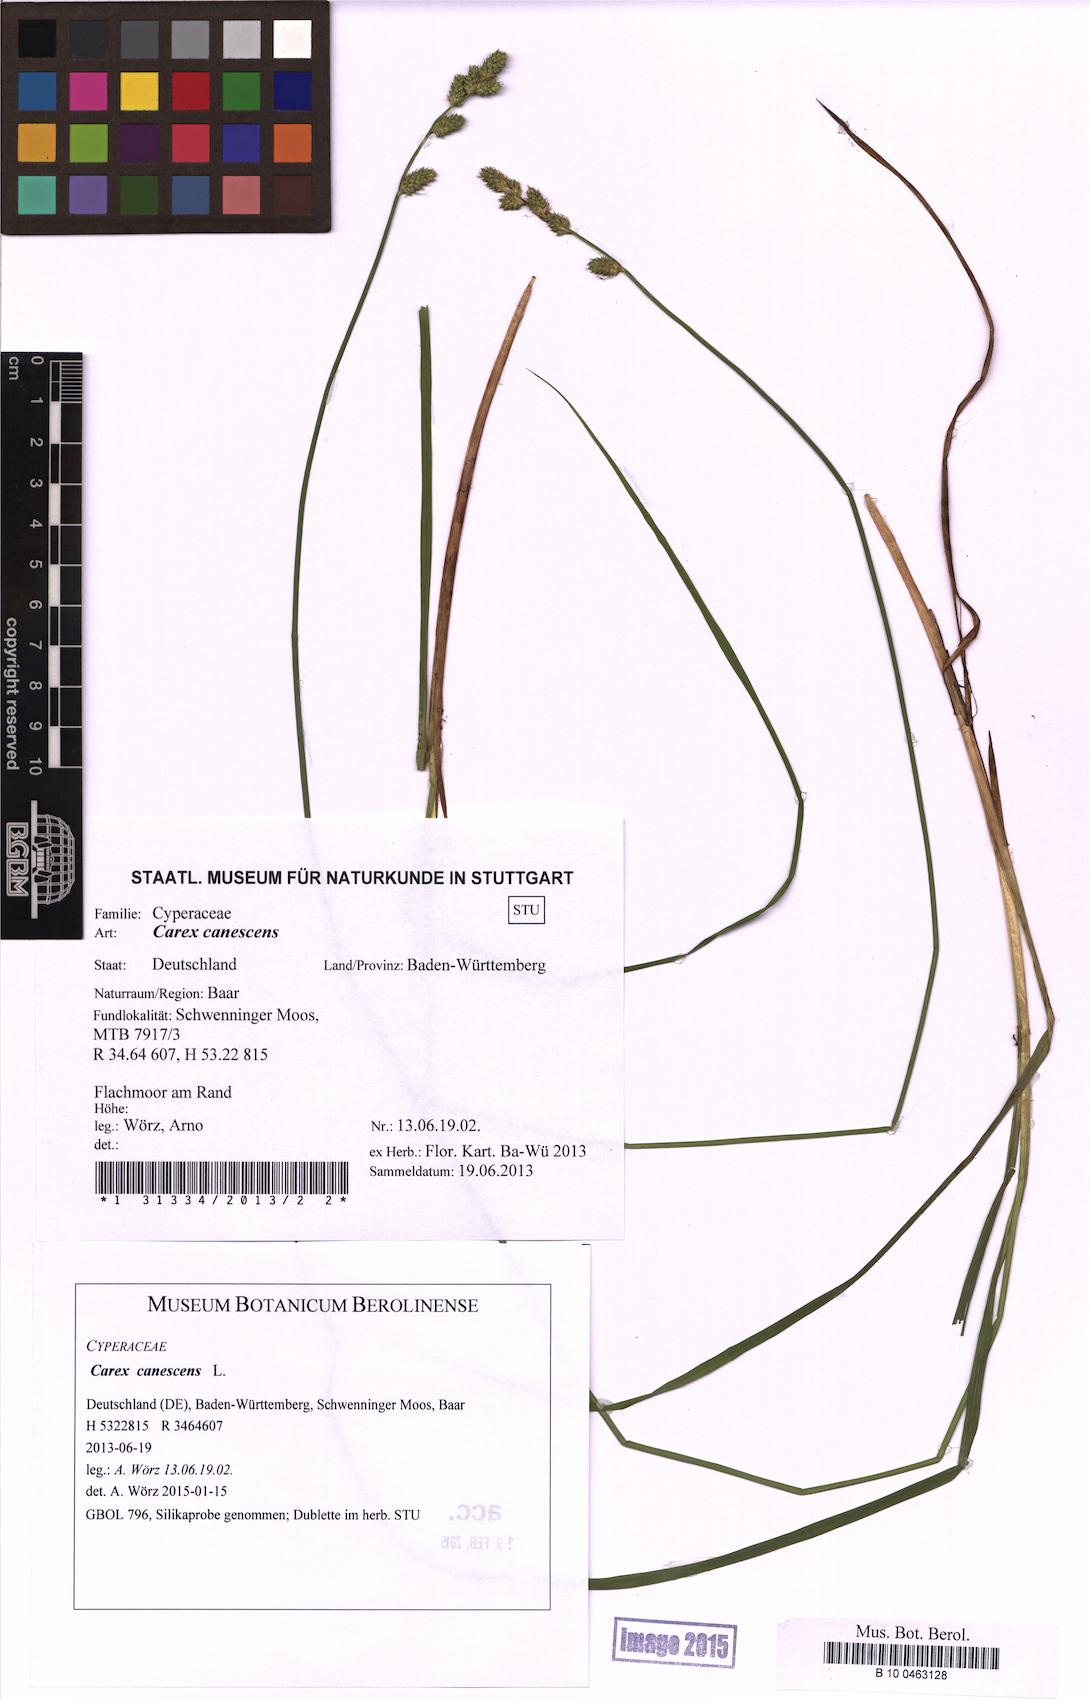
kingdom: Plantae
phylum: Tracheophyta
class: Liliopsida
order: Poales
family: Cyperaceae
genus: Carex
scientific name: Carex canescens
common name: White sedge
